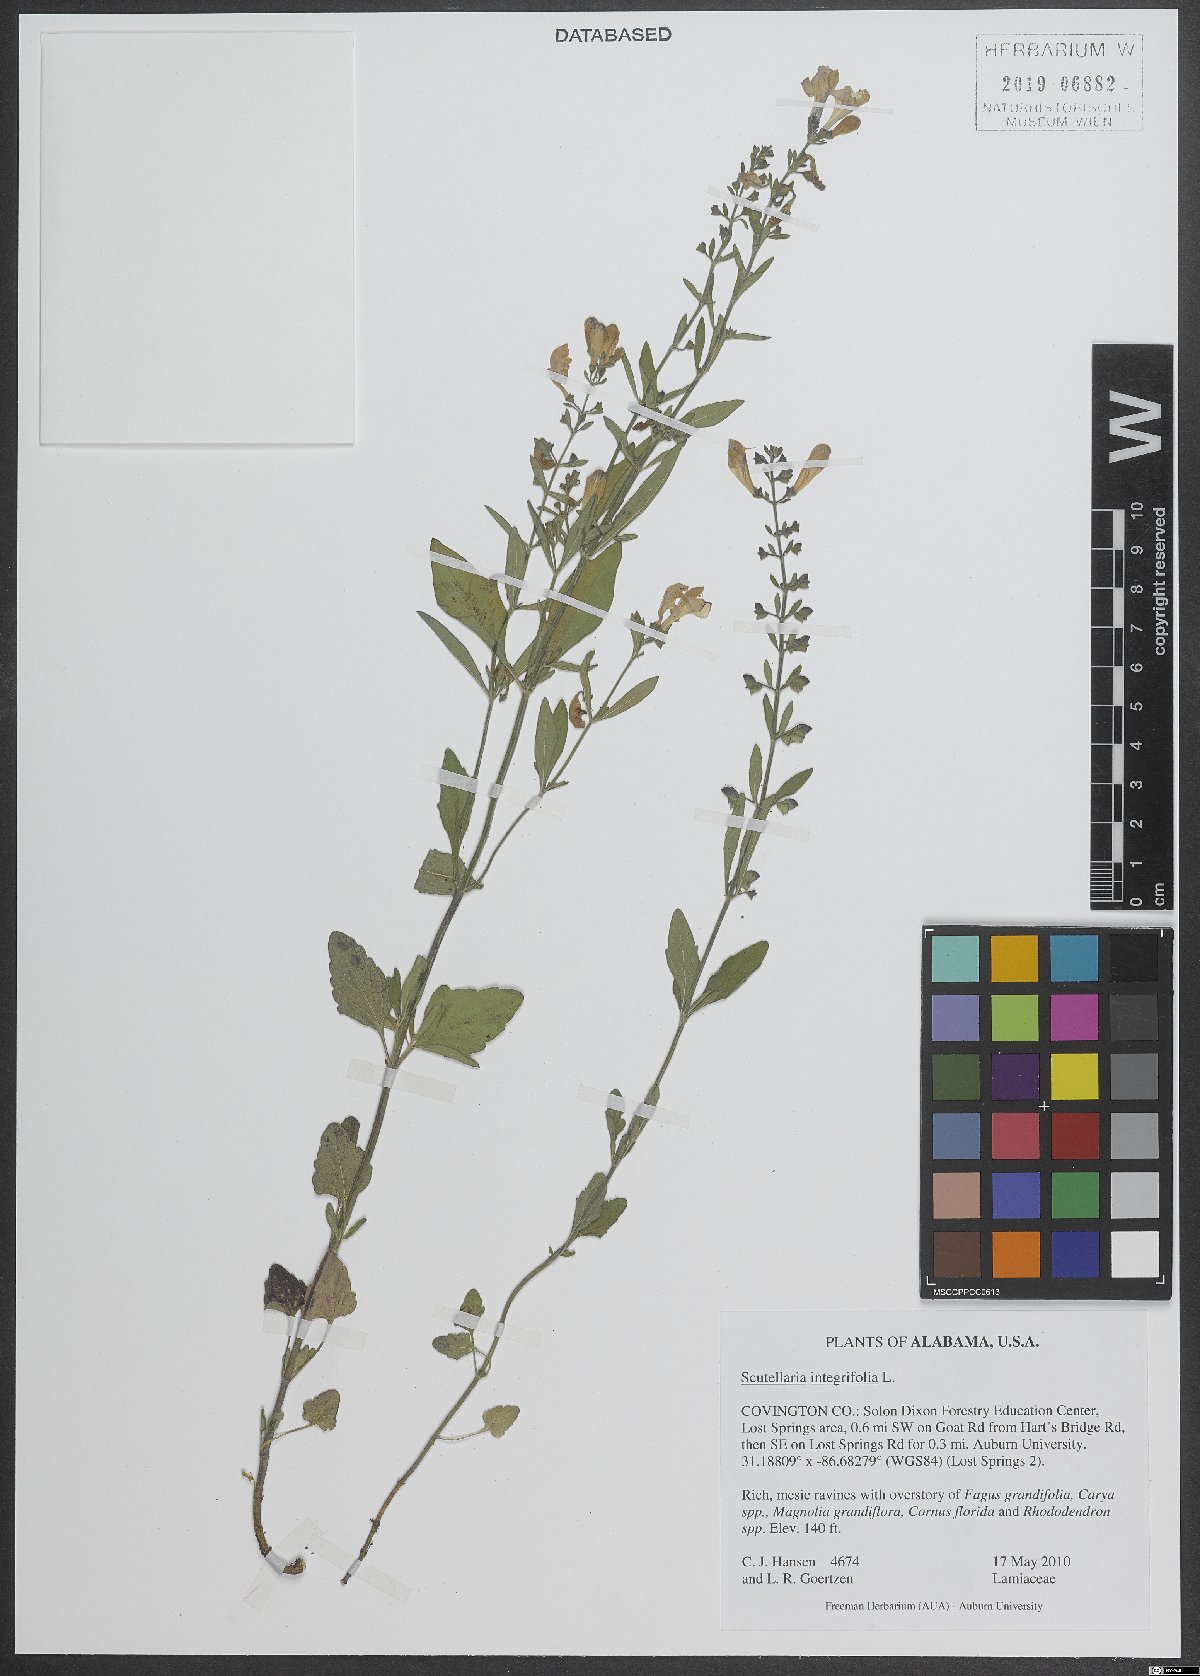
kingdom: Plantae
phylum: Tracheophyta
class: Magnoliopsida
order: Lamiales
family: Lamiaceae
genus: Scutellaria
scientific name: Scutellaria integrifolia
